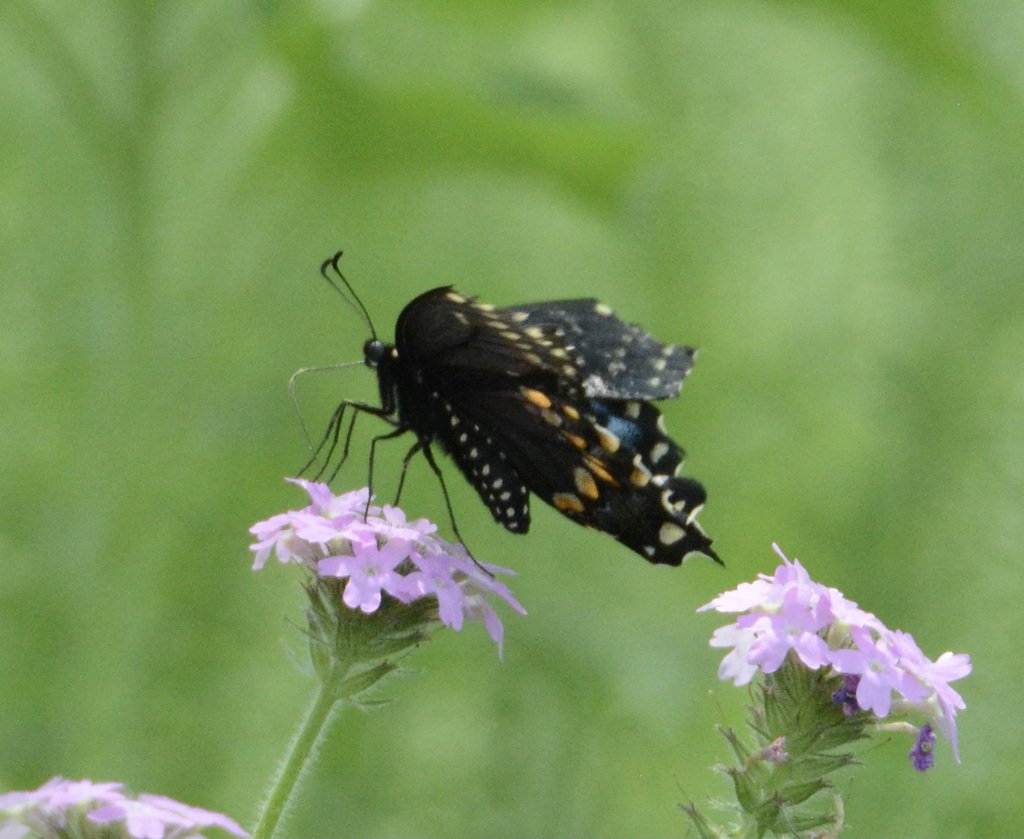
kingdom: Animalia
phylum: Arthropoda
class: Insecta
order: Lepidoptera
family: Papilionidae
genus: Papilio
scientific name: Papilio polyxenes
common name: Black Swallowtail
